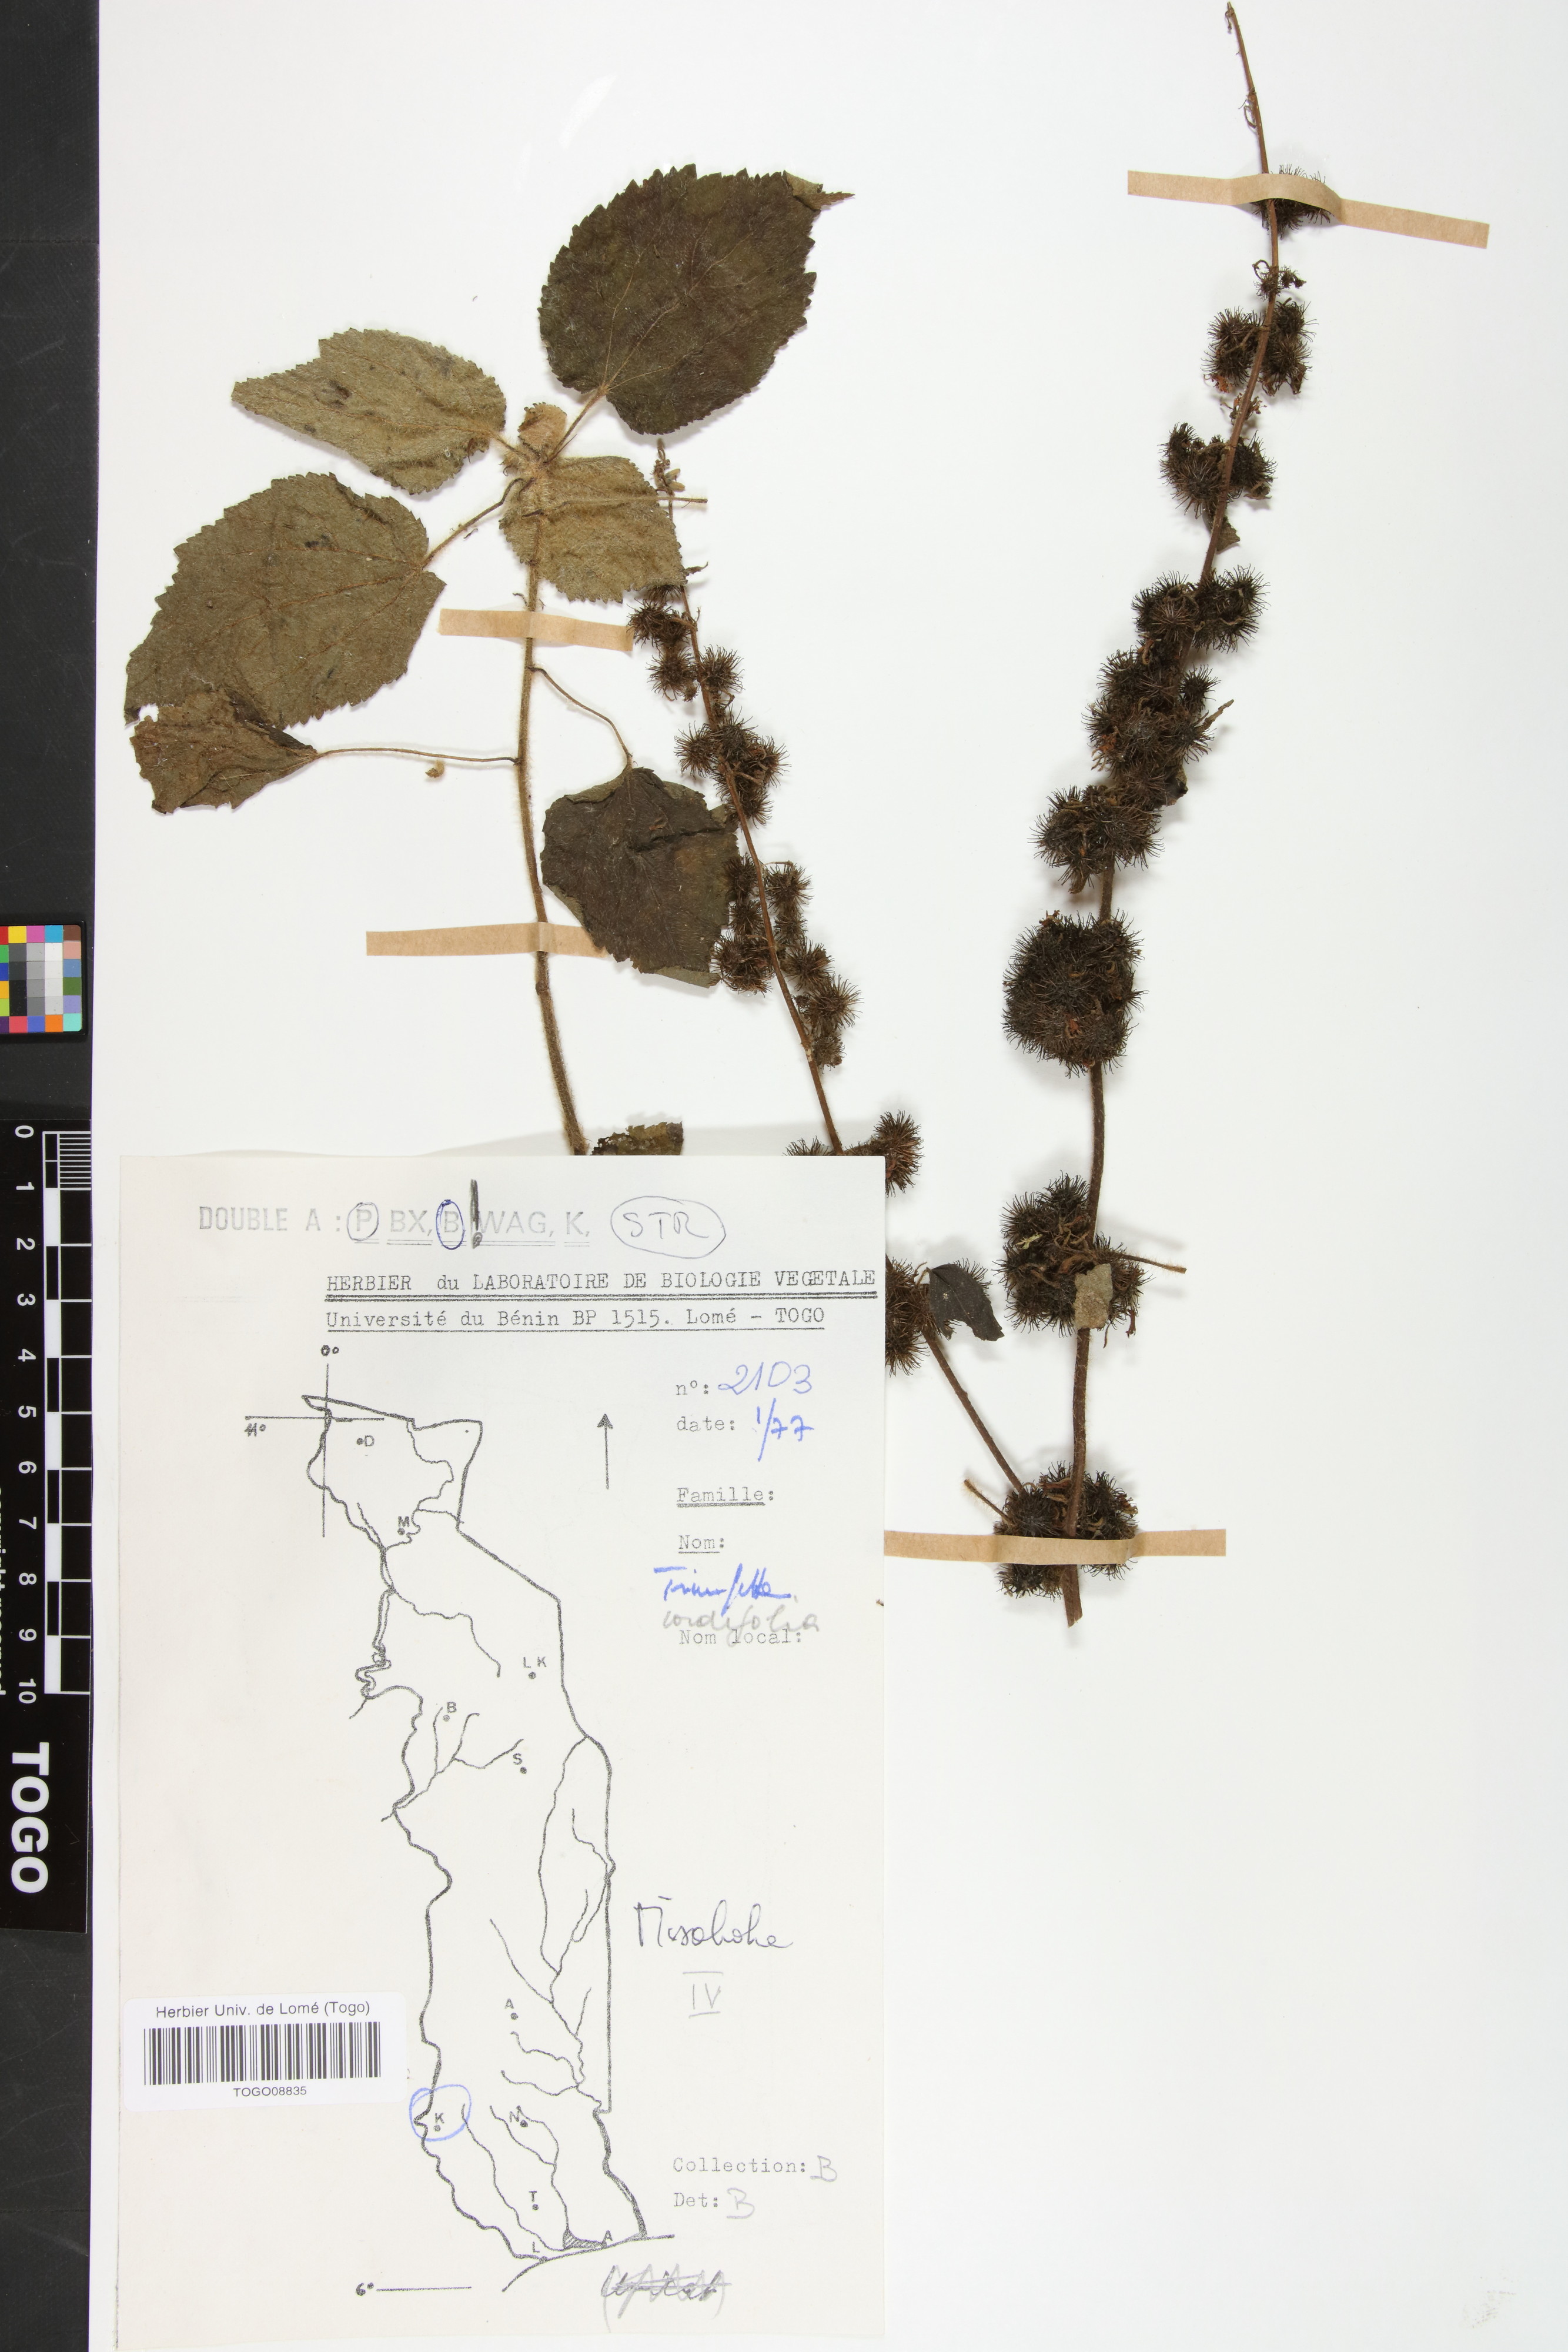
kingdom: Plantae
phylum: Tracheophyta
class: Magnoliopsida
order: Malvales
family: Malvaceae
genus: Triumfetta
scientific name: Triumfetta cordifolia
